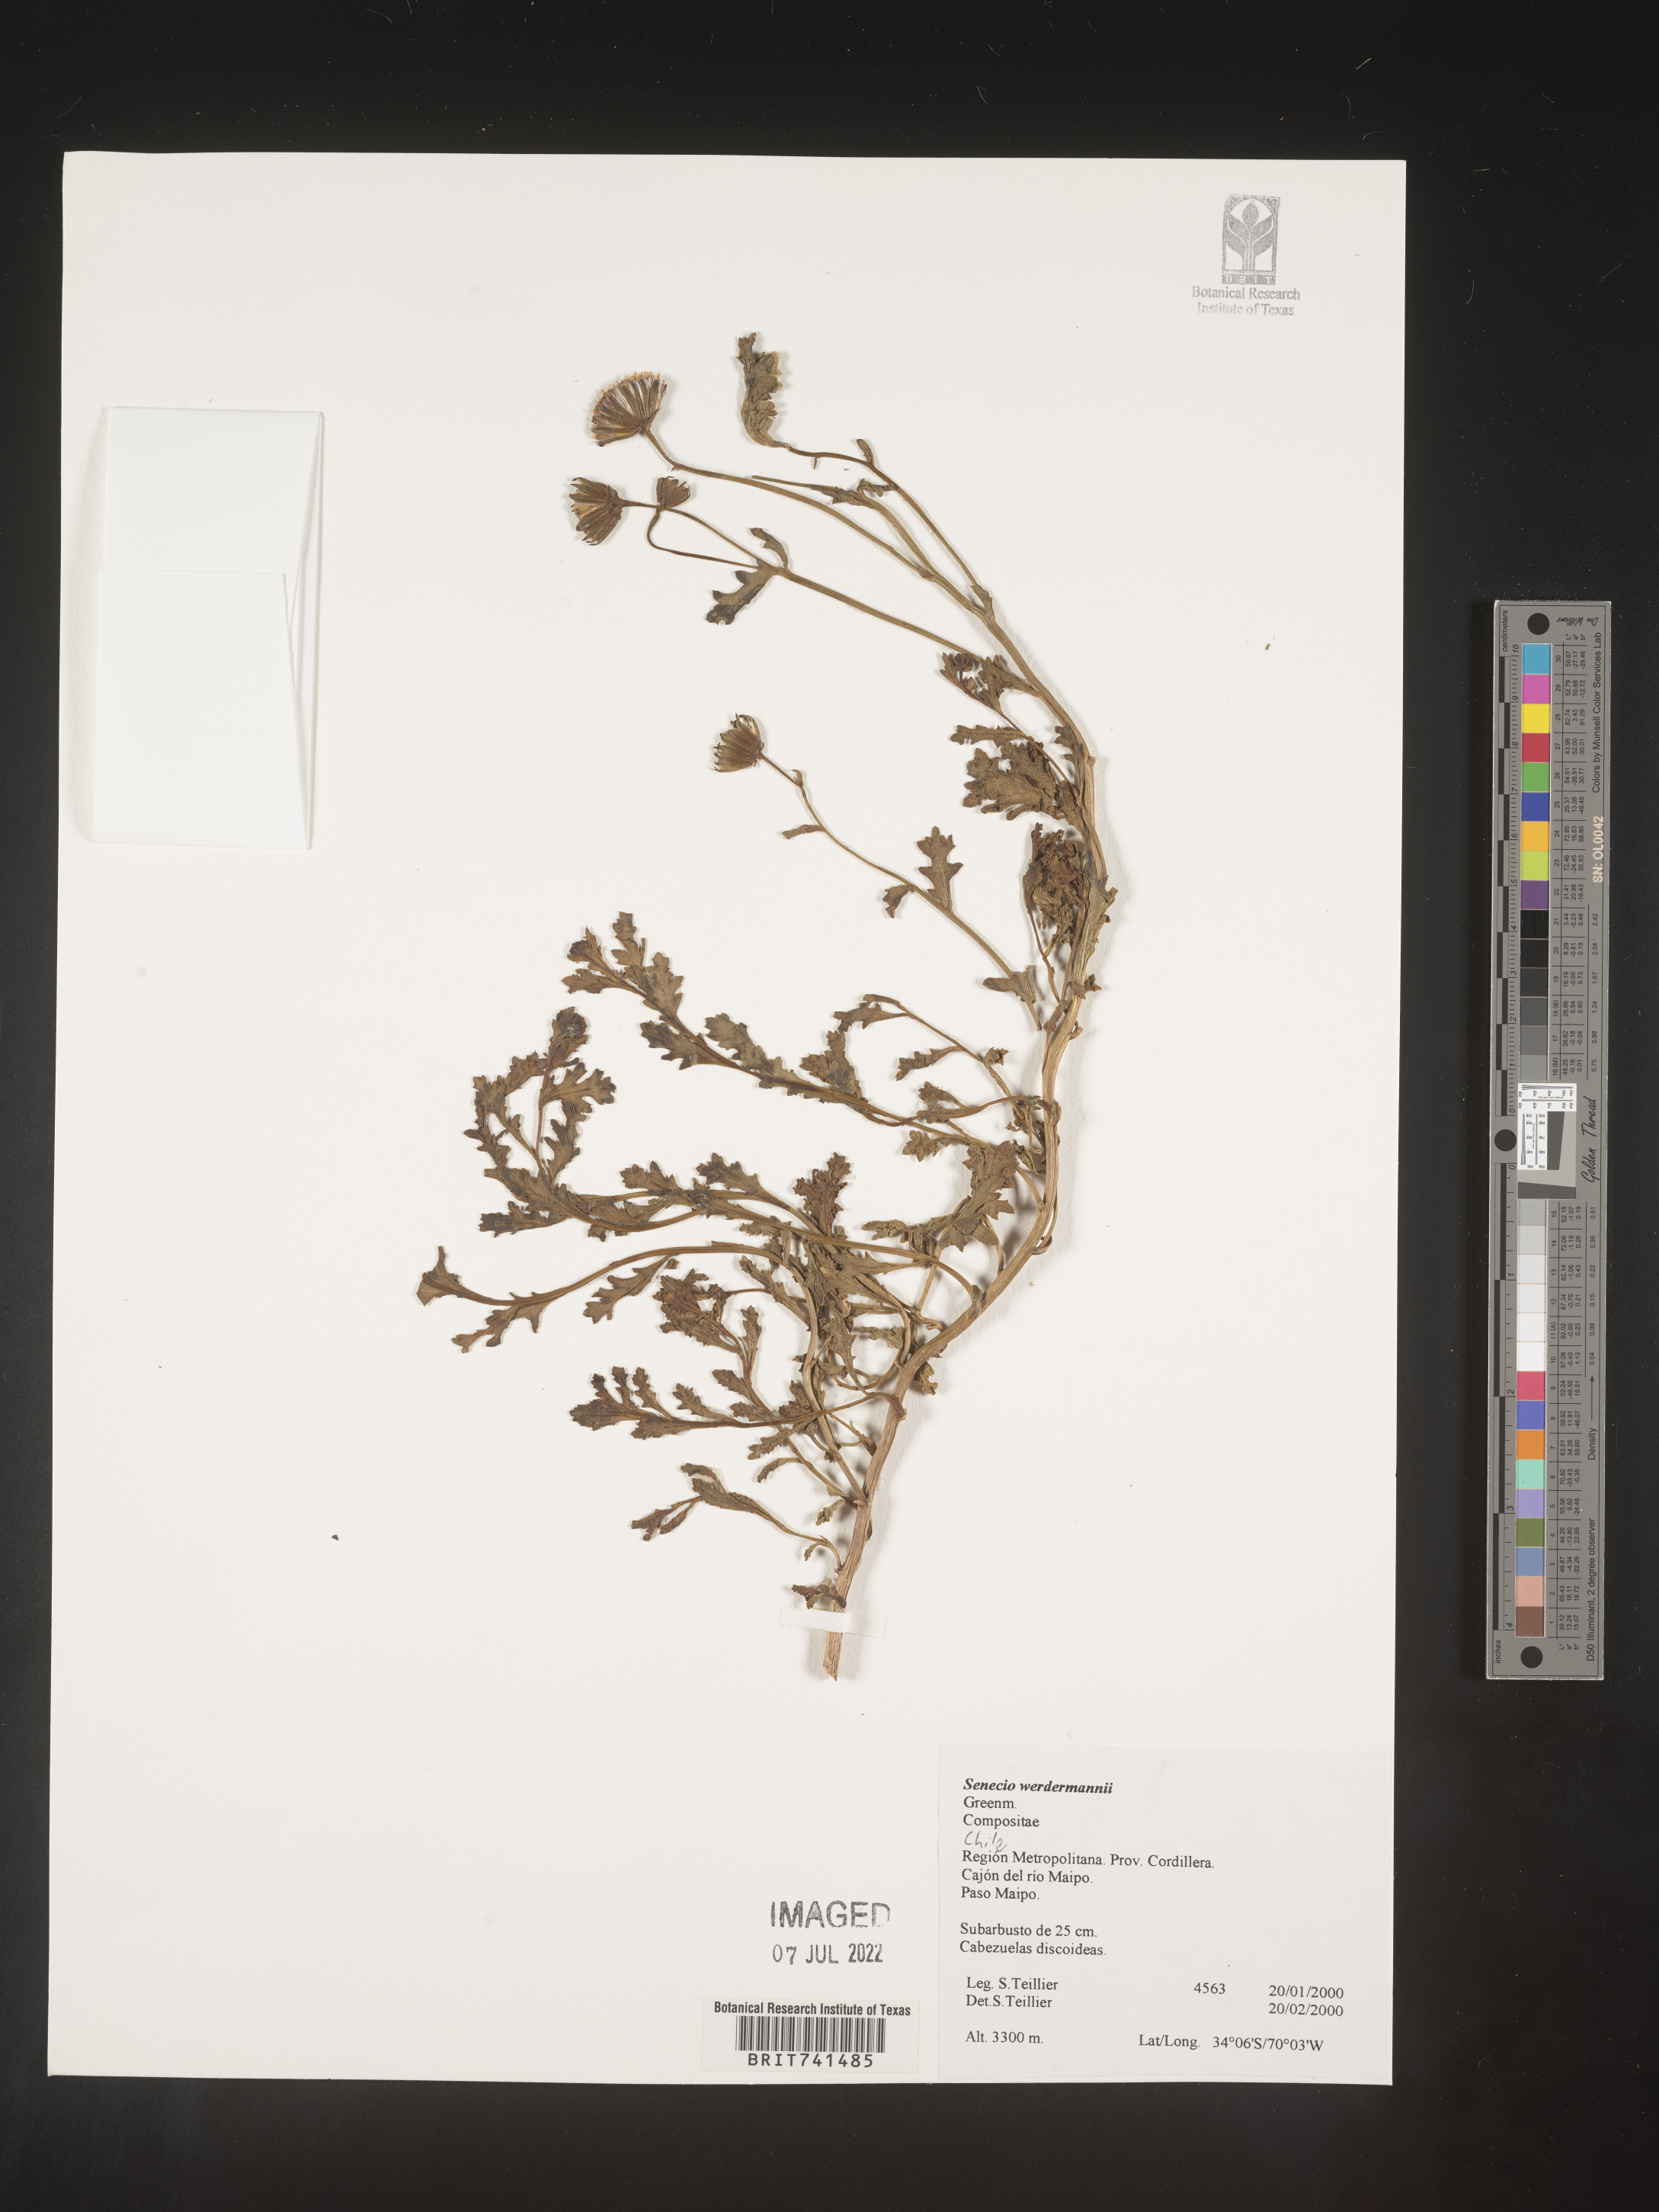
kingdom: Plantae
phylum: Tracheophyta
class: Magnoliopsida
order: Asterales
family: Asteraceae
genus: Senecio
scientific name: Senecio
